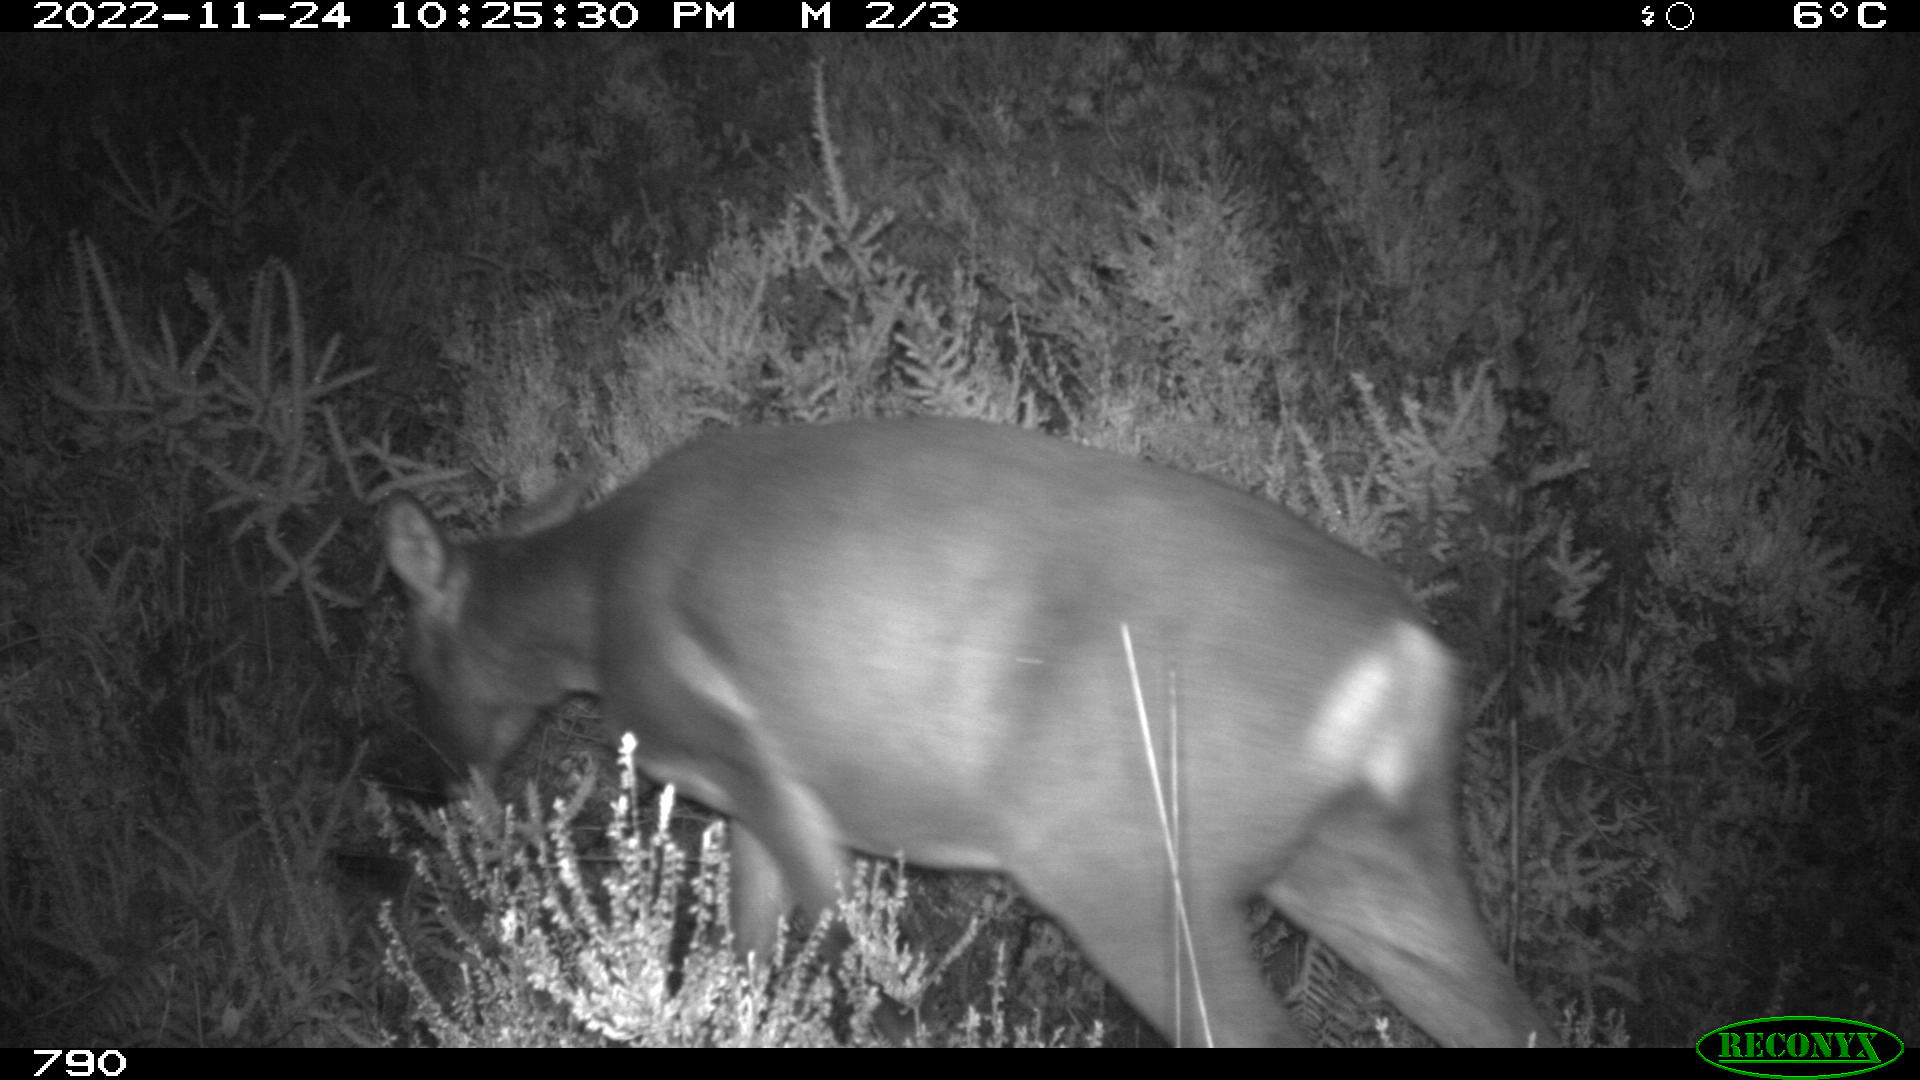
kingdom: Animalia
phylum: Chordata
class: Mammalia
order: Artiodactyla
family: Cervidae
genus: Capreolus
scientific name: Capreolus capreolus
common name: Western roe deer
